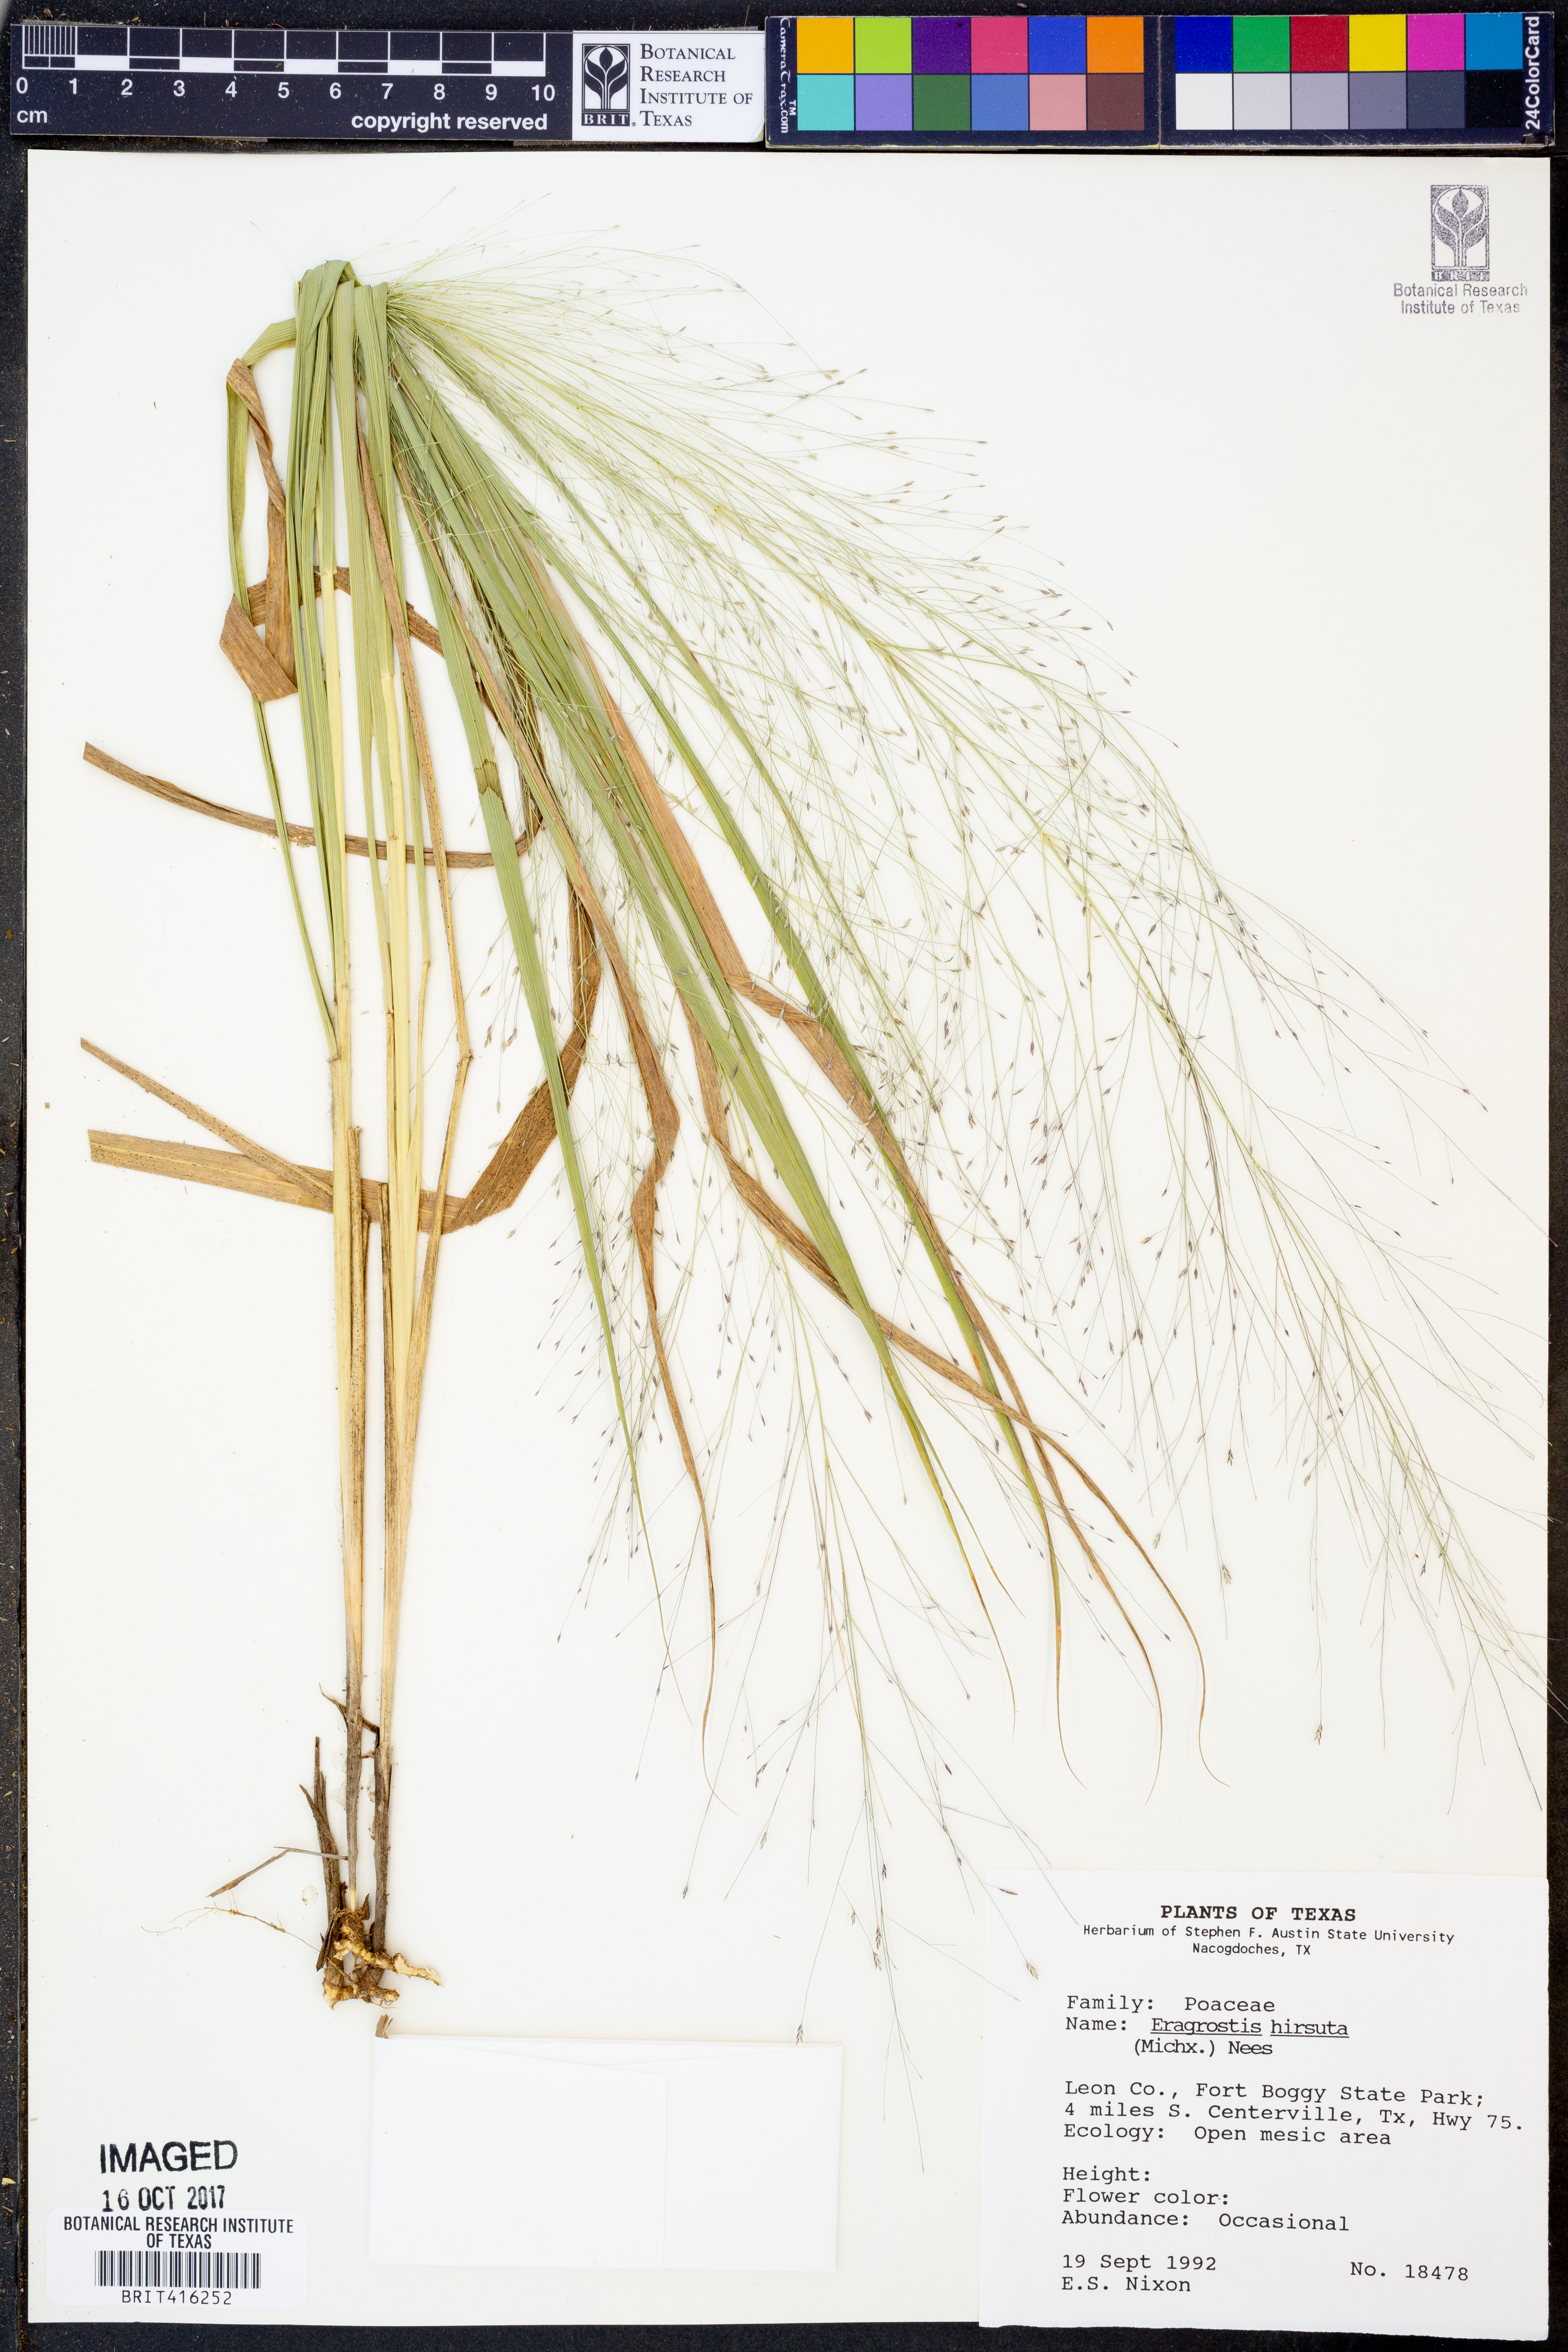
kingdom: Plantae
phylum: Tracheophyta
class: Liliopsida
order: Poales
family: Poaceae
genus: Eragrostis
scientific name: Eragrostis hirsuta
